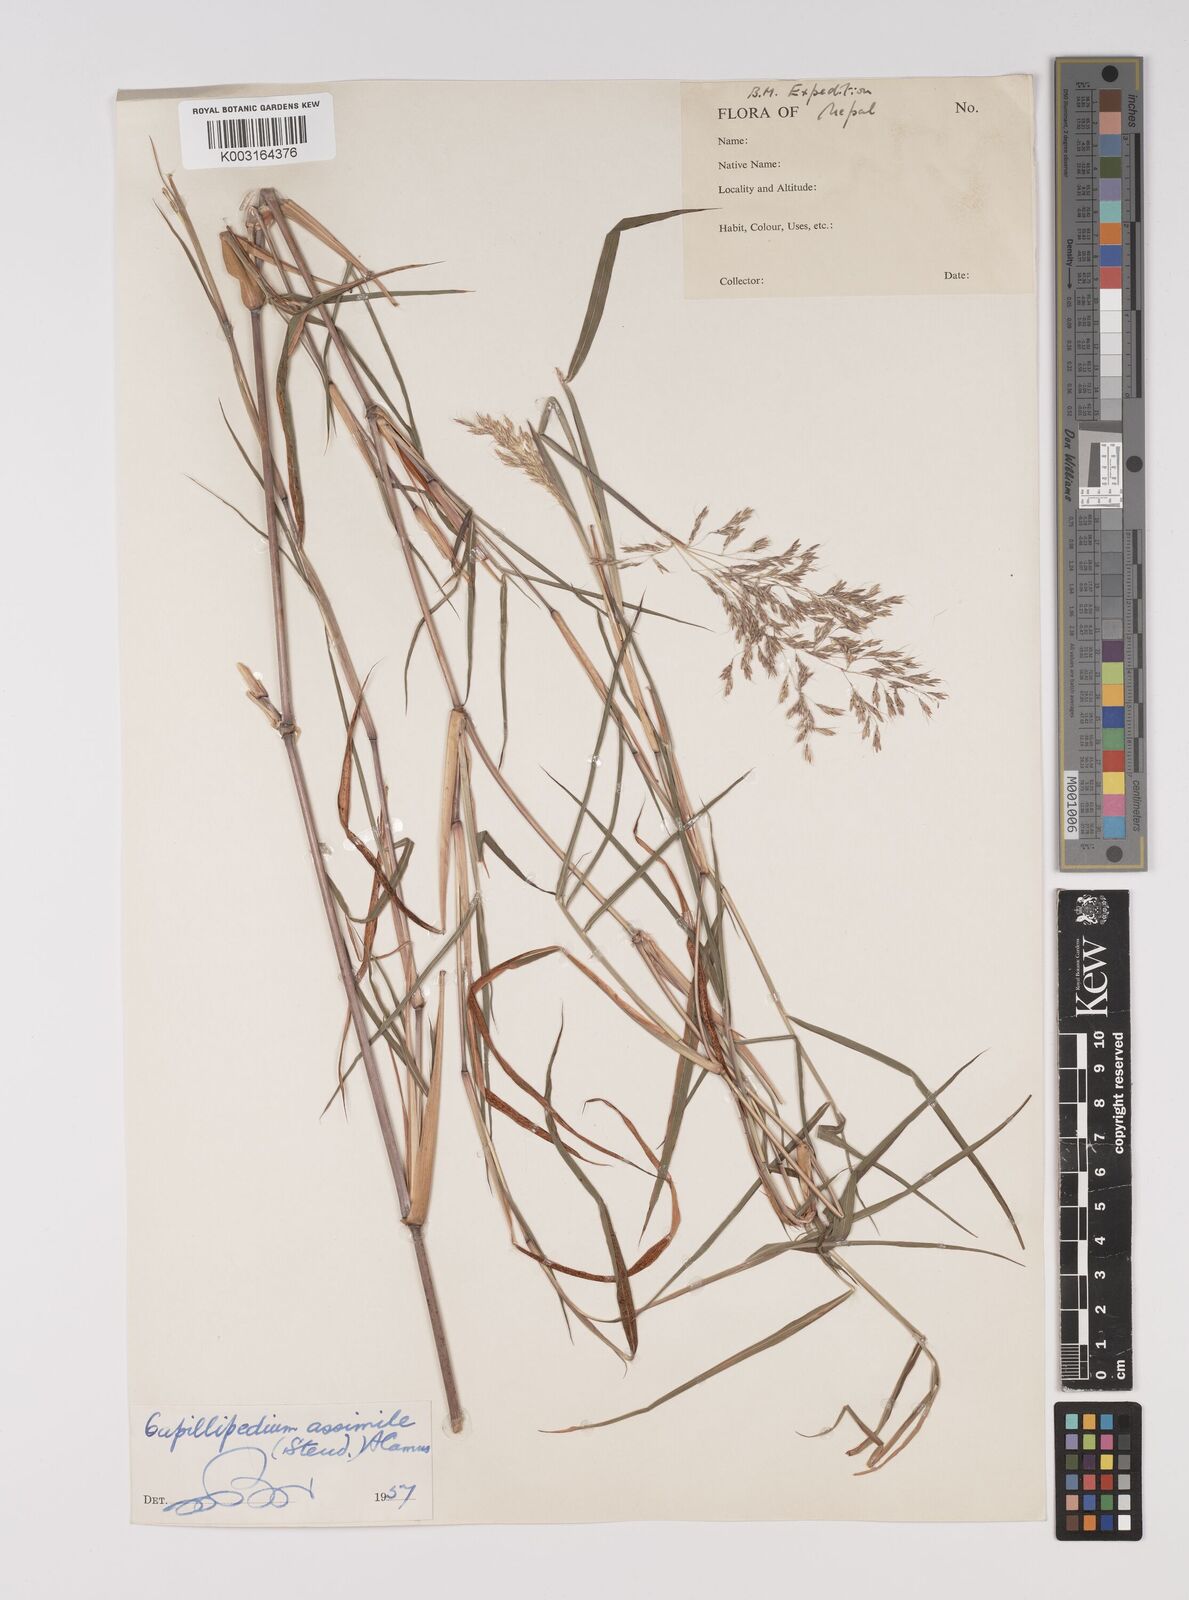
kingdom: Plantae
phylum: Tracheophyta
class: Liliopsida
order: Poales
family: Poaceae
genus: Capillipedium
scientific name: Capillipedium assimile
